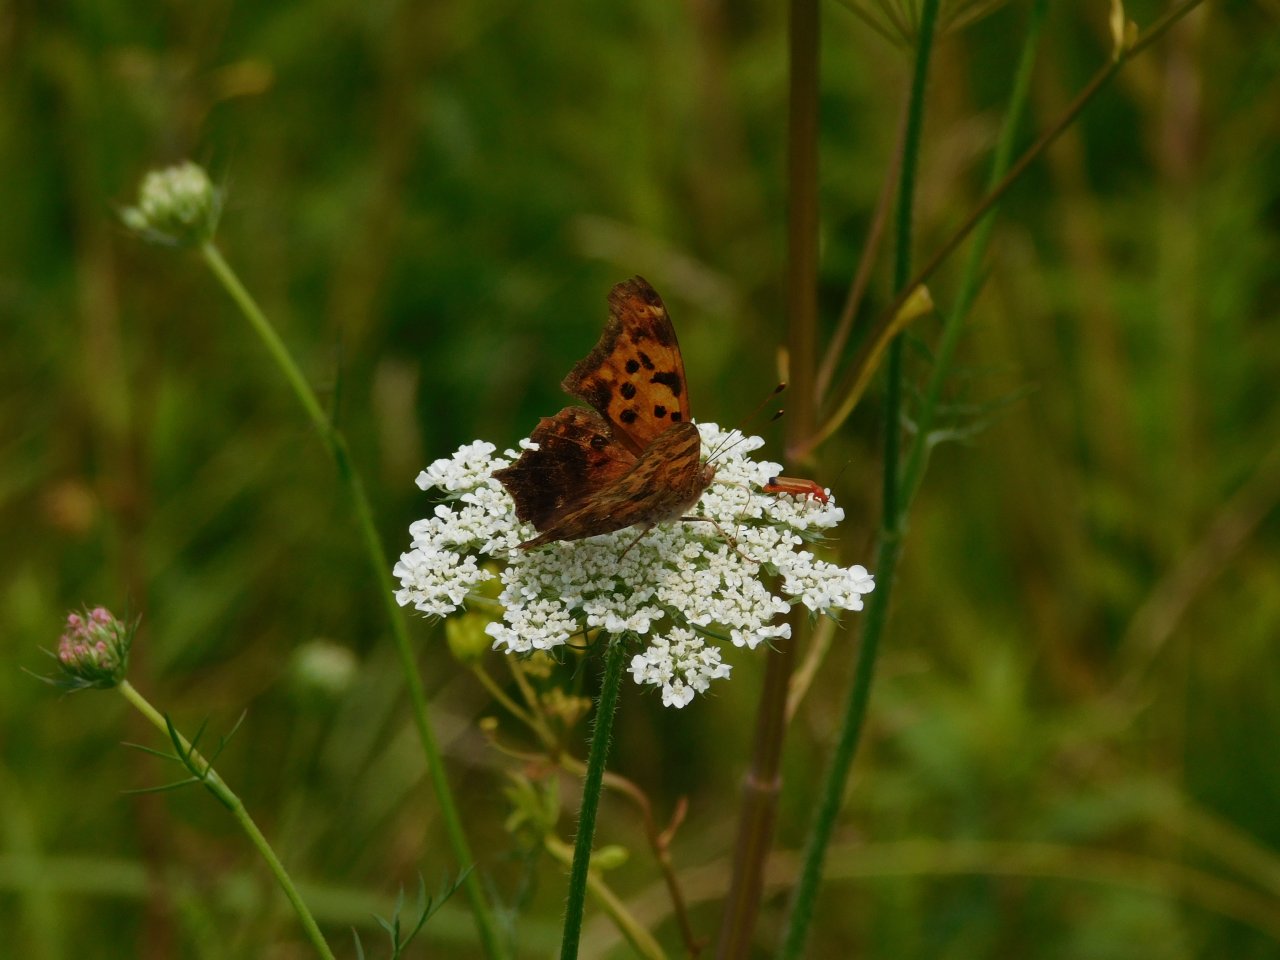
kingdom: Animalia
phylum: Arthropoda
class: Insecta
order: Lepidoptera
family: Nymphalidae
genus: Polygonia
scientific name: Polygonia interrogationis
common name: Question Mark
